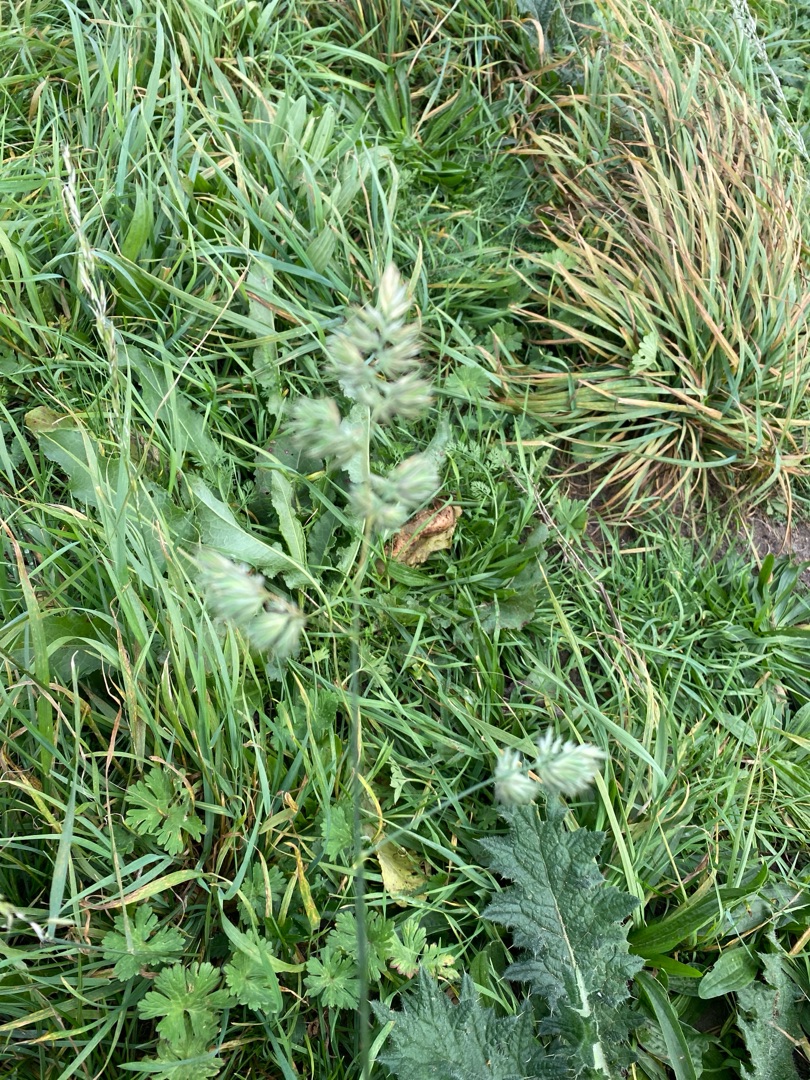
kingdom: Plantae
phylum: Tracheophyta
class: Liliopsida
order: Poales
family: Poaceae
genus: Dactylis
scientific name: Dactylis glomerata
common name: Almindelig hundegræs
